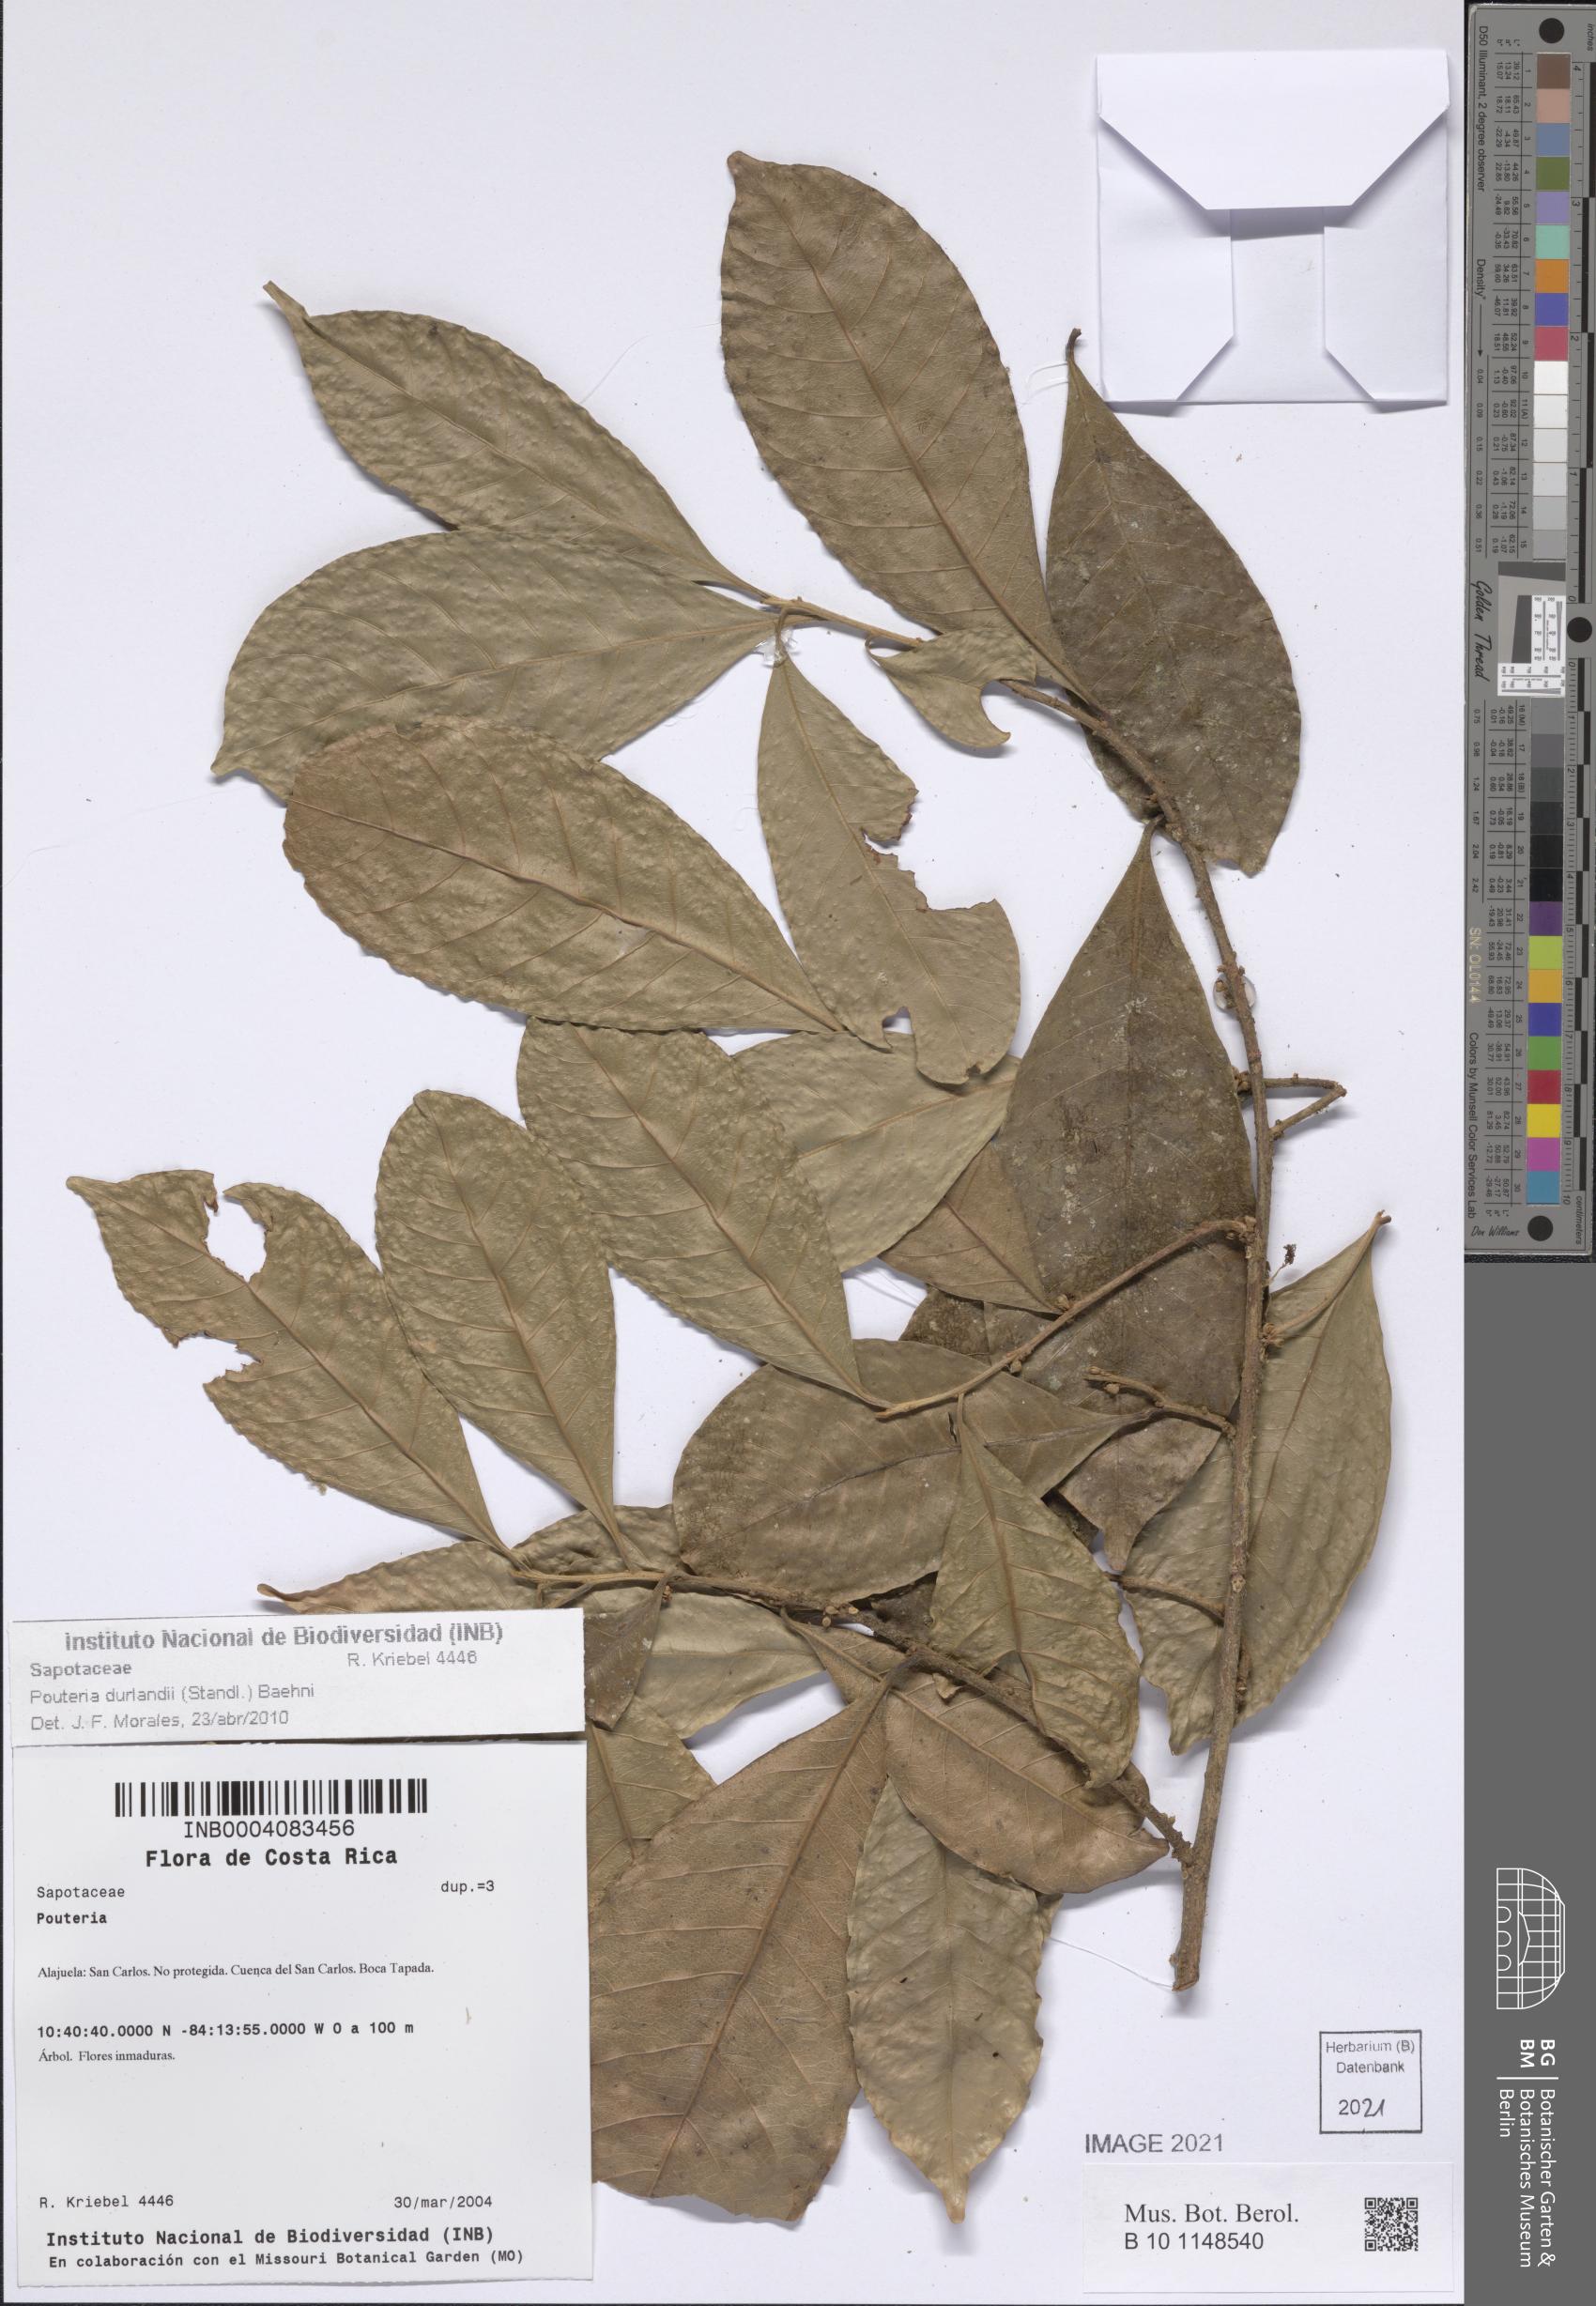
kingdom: Plantae
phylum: Tracheophyta
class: Magnoliopsida
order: Ericales
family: Sapotaceae
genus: Pouteria
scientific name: Pouteria durlandii
